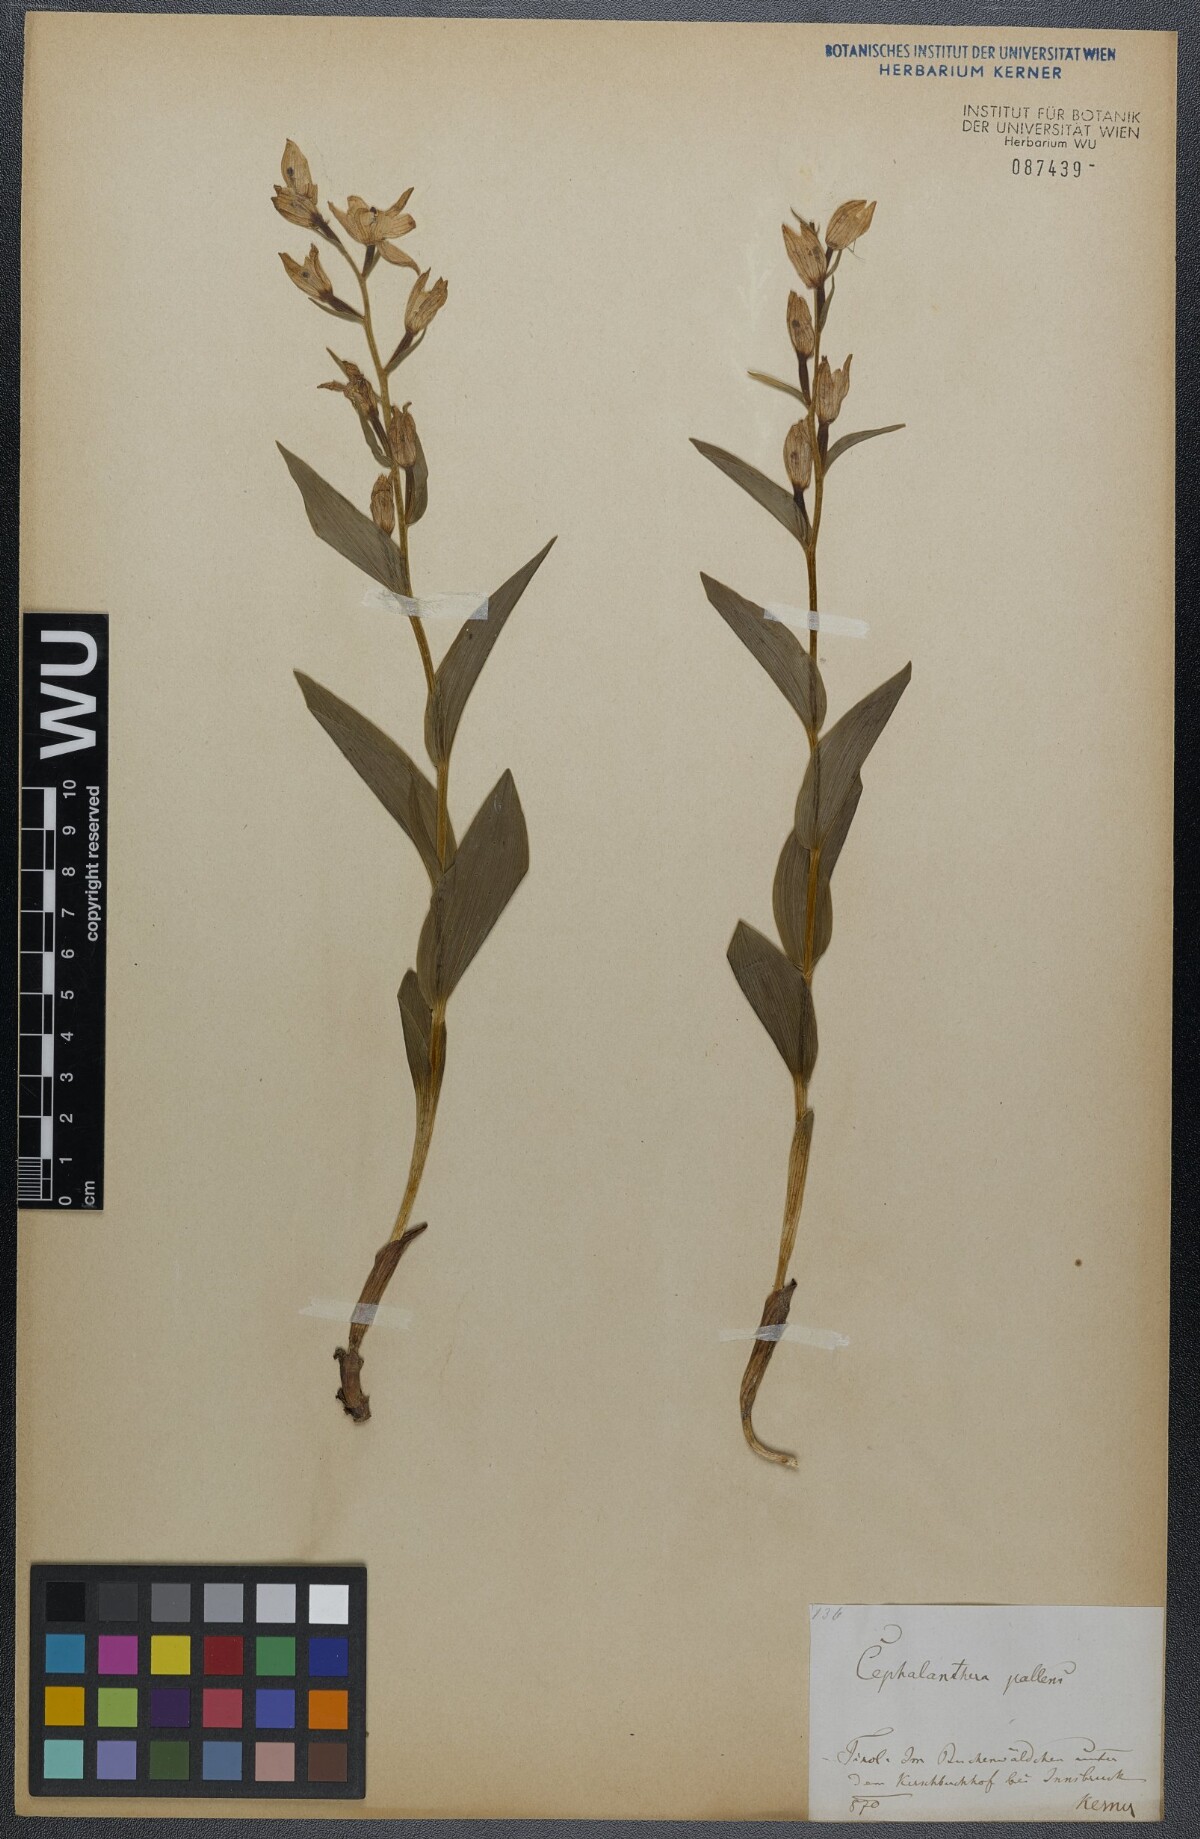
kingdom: Plantae
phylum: Tracheophyta
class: Liliopsida
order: Asparagales
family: Orchidaceae
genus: Cephalanthera
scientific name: Cephalanthera longifolia
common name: Narrow-leaved helleborine
